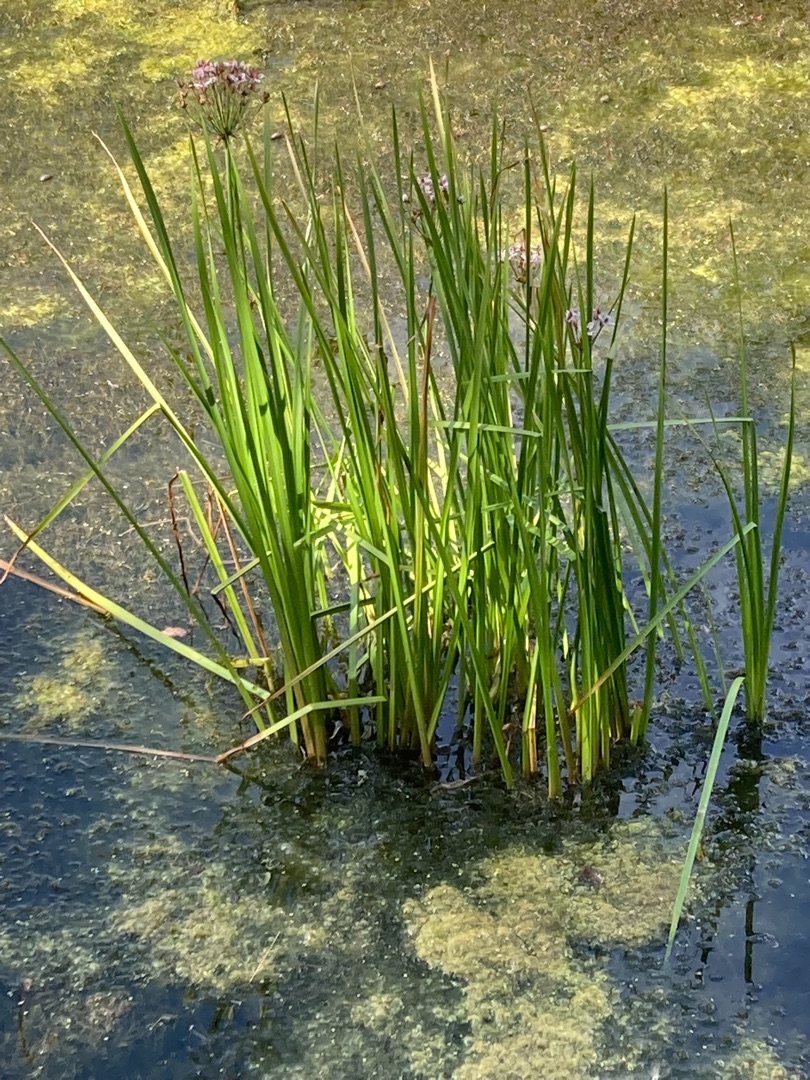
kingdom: Plantae
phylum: Tracheophyta
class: Liliopsida
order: Alismatales
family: Butomaceae
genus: Butomus
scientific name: Butomus umbellatus
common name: Brudelys
